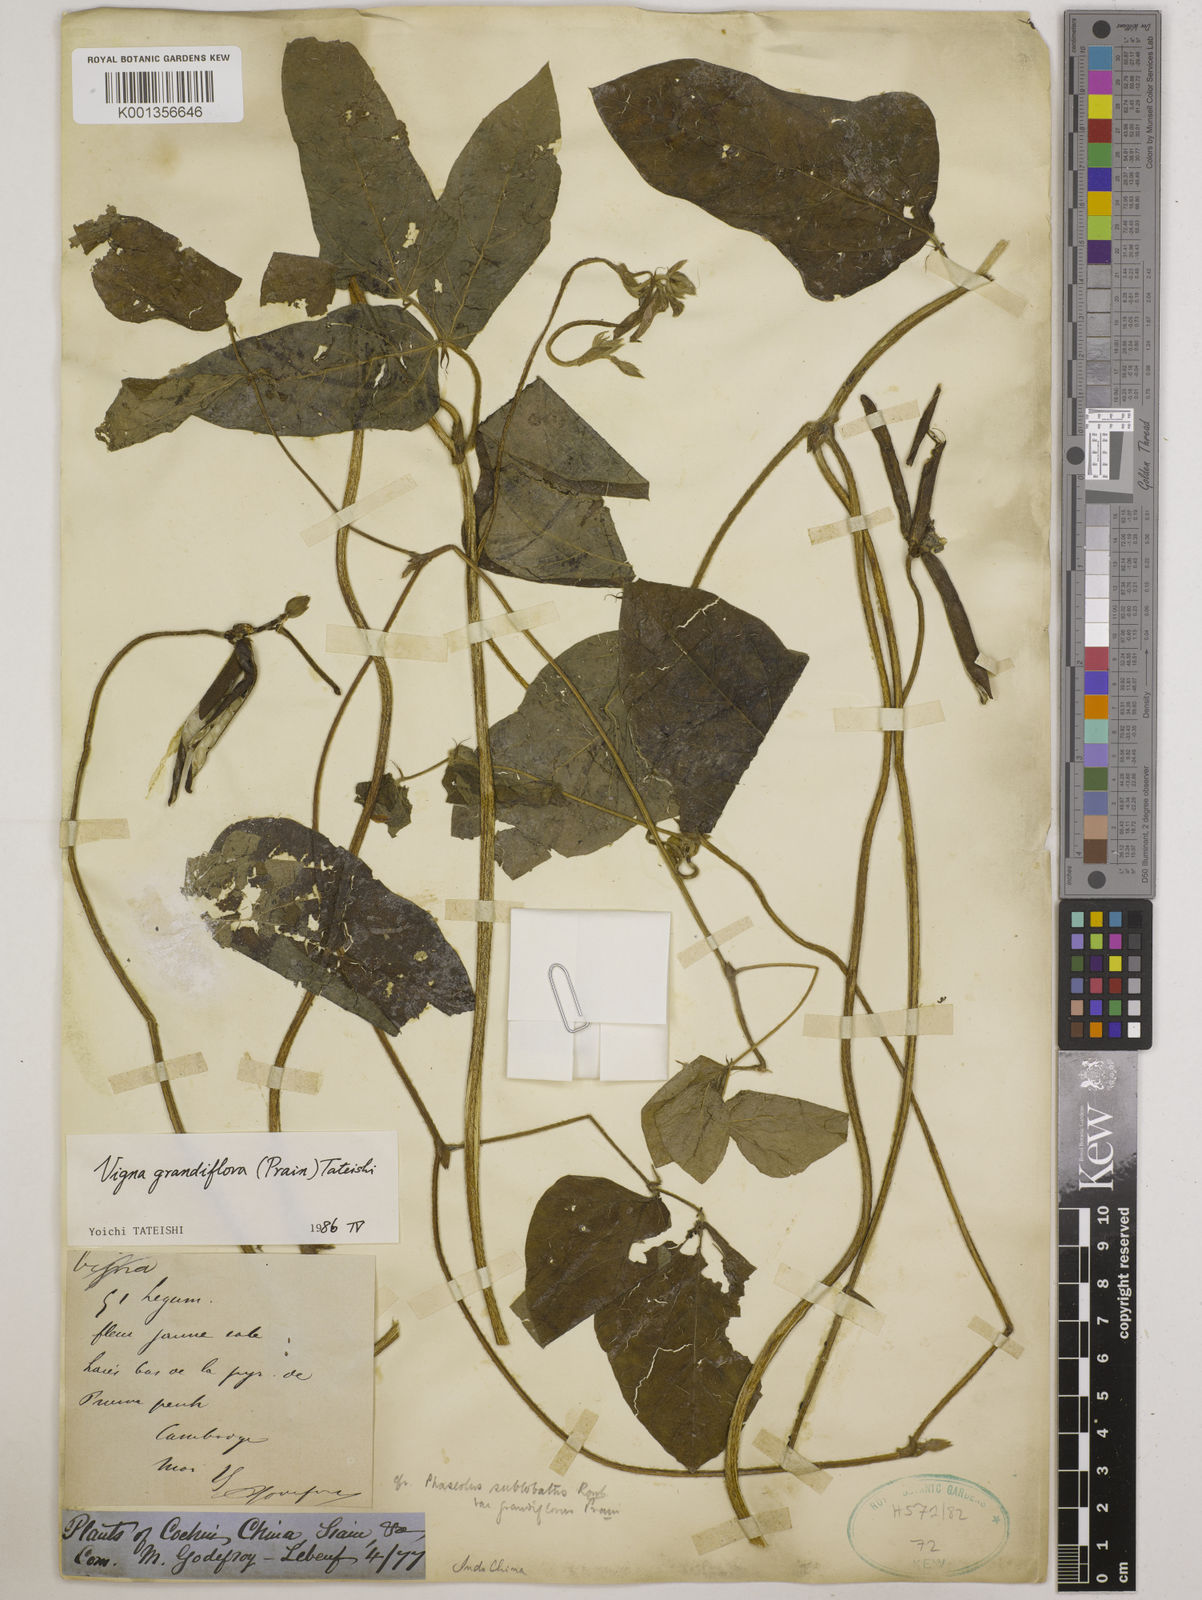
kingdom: Plantae
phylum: Tracheophyta
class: Magnoliopsida
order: Fabales
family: Fabaceae
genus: Vigna
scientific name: Vigna
